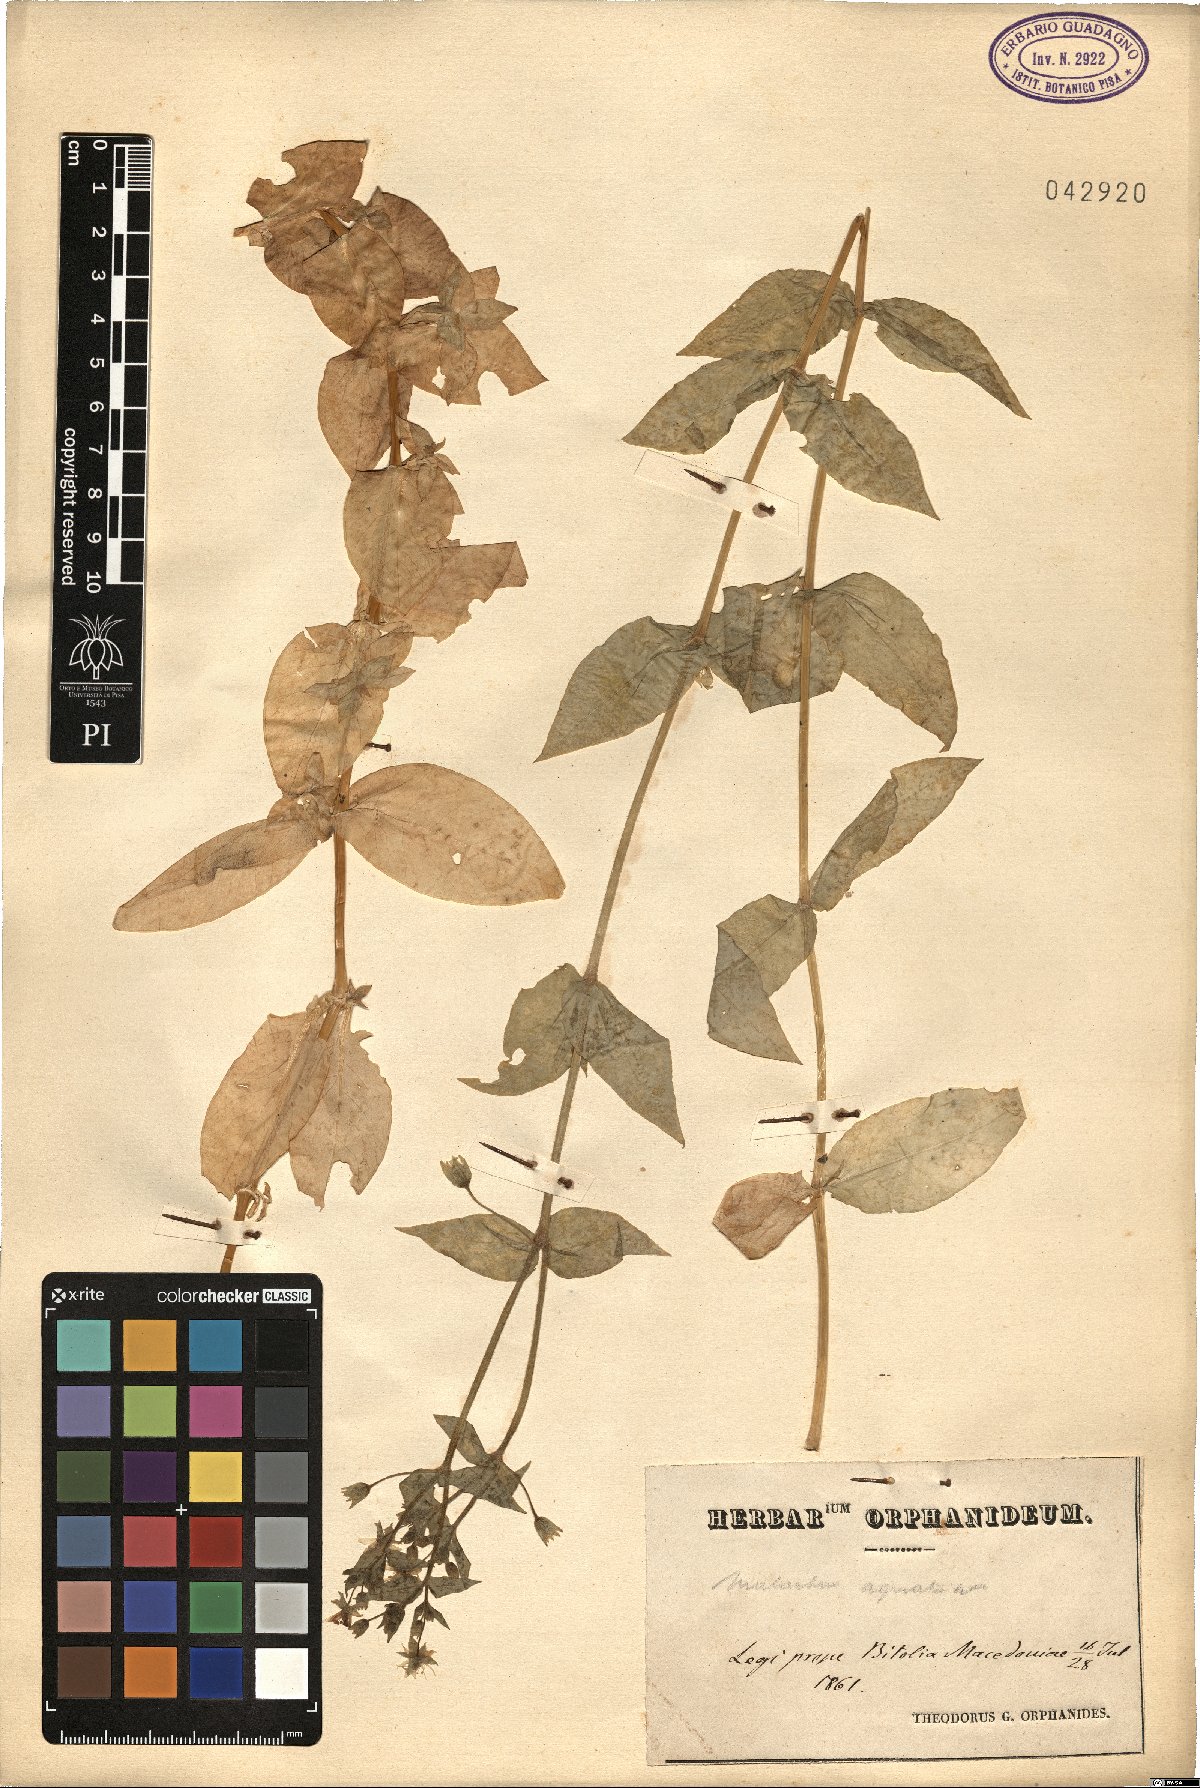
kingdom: Plantae
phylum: Tracheophyta
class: Magnoliopsida
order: Caryophyllales
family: Caryophyllaceae
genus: Stellaria
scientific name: Stellaria aquatica
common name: Water chickweed
